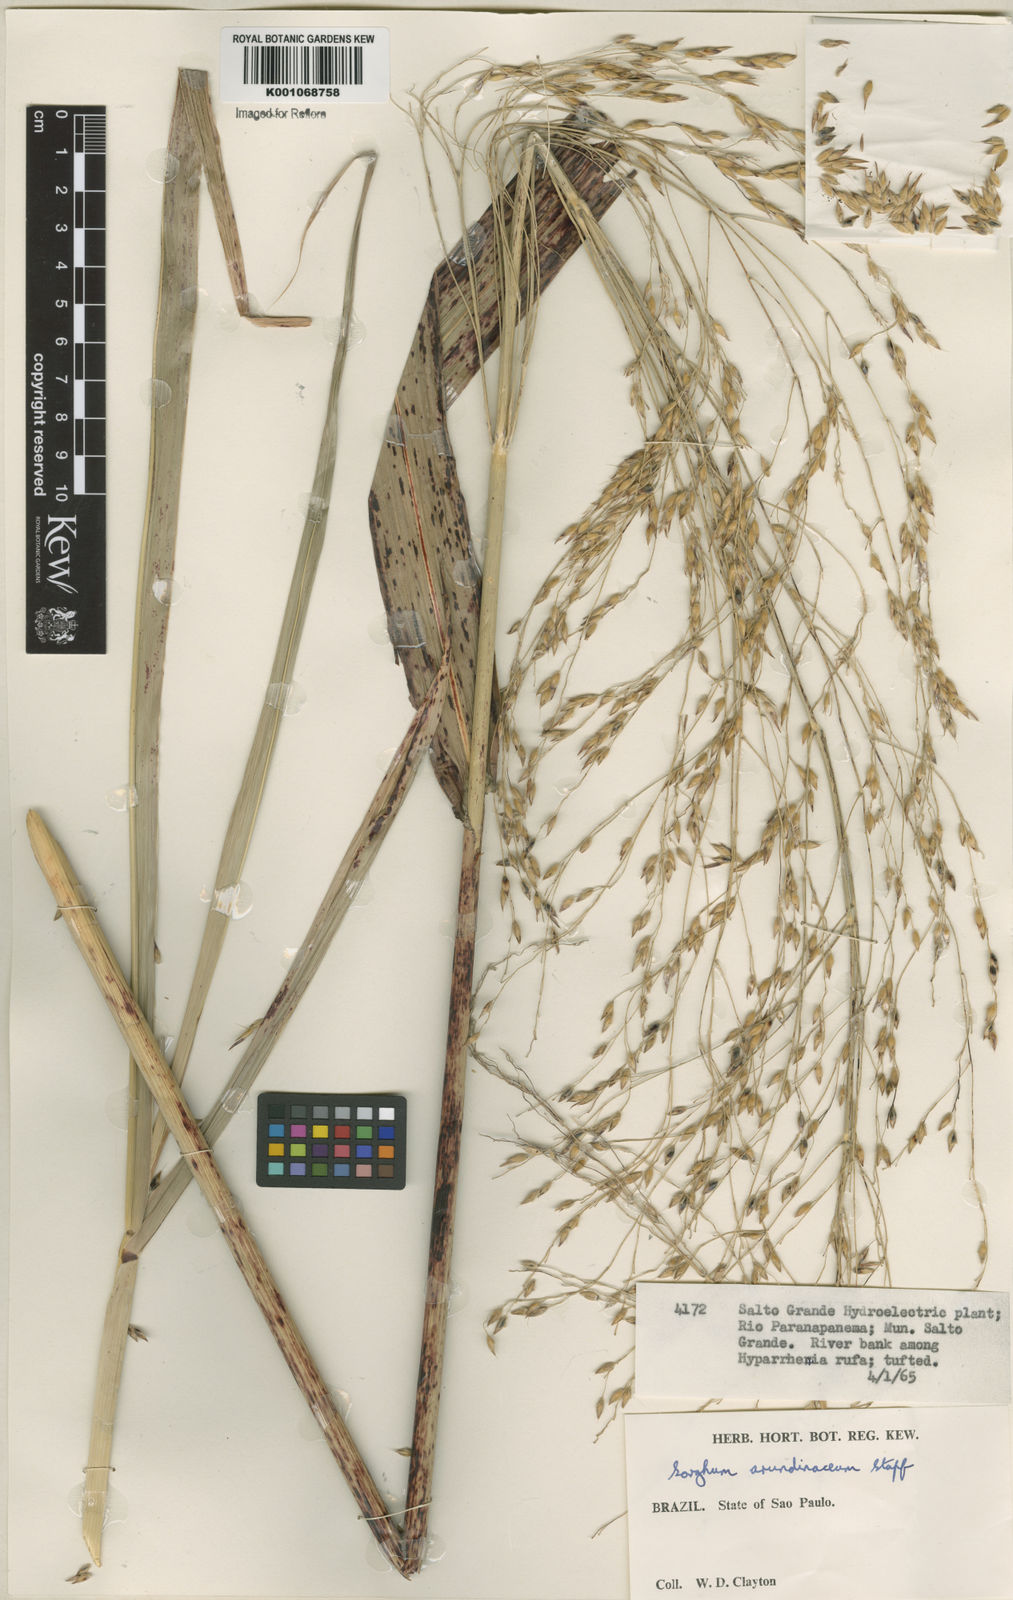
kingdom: Plantae
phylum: Tracheophyta
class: Liliopsida
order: Poales
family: Poaceae
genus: Sorghum
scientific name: Sorghum arundinaceum
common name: Sorghum
